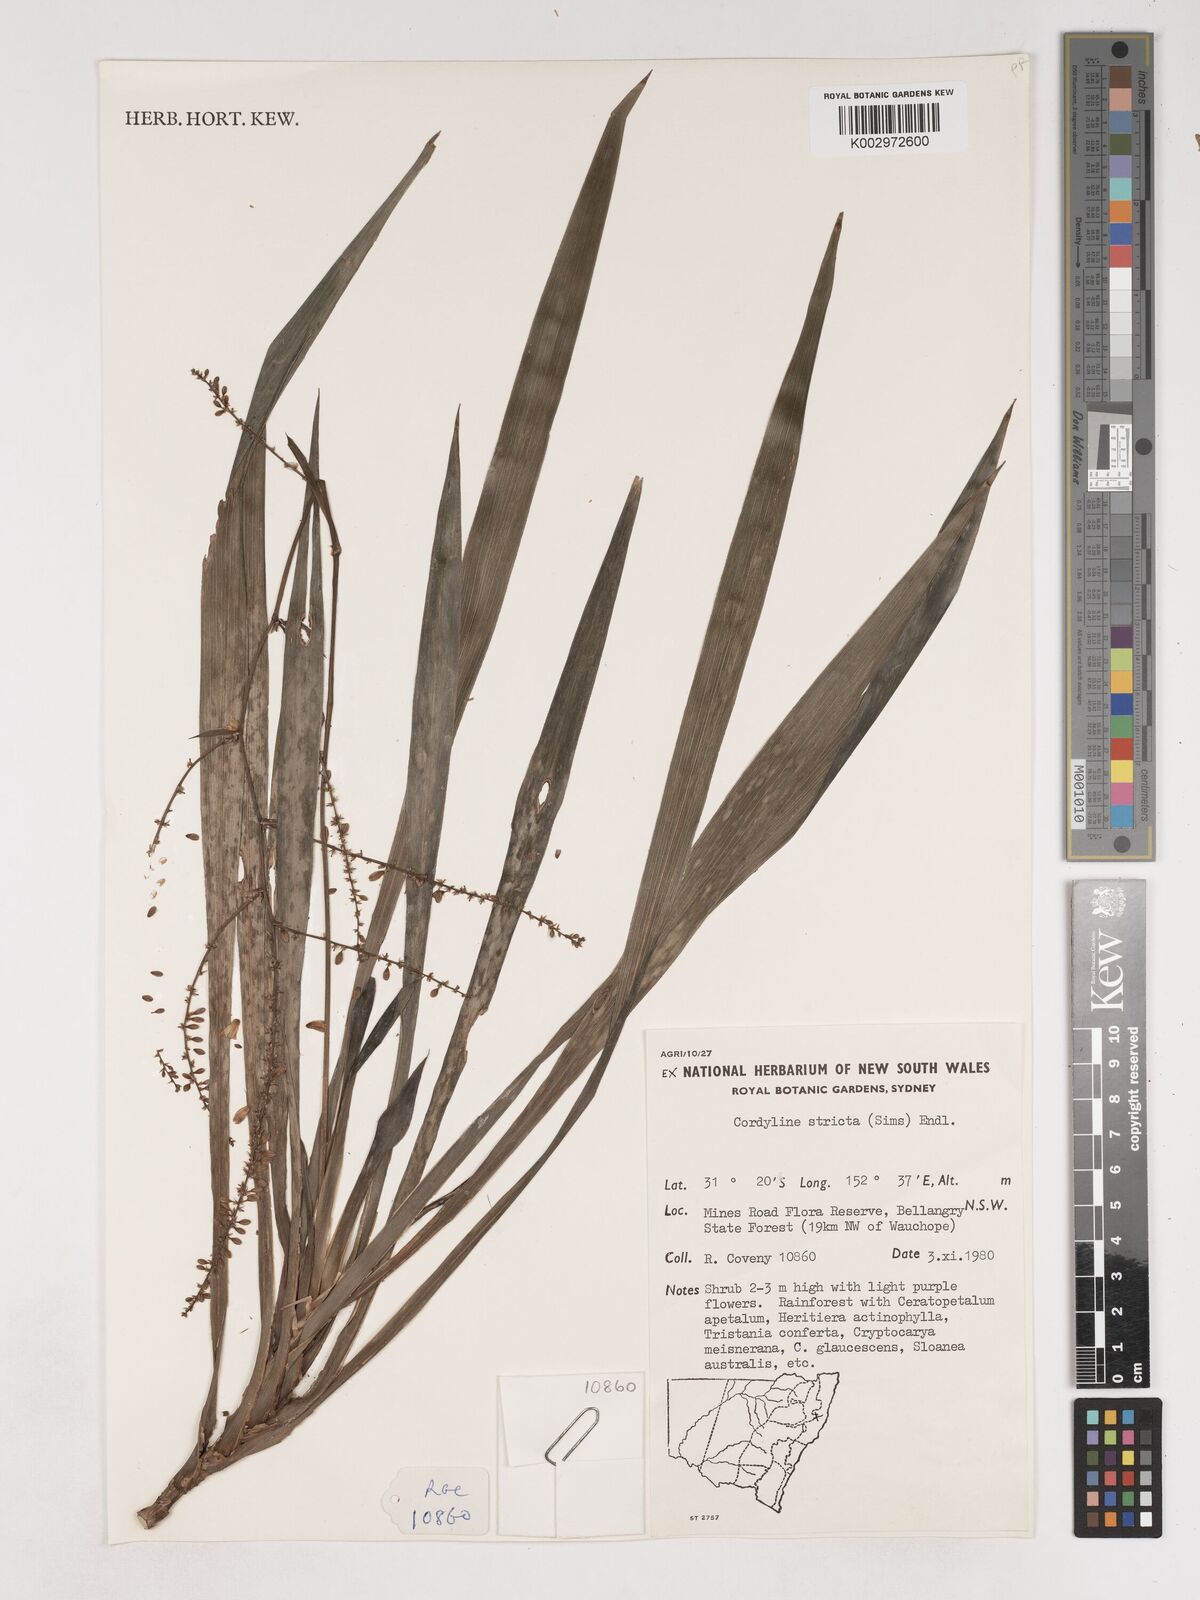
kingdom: Plantae
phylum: Tracheophyta
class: Liliopsida
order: Asparagales
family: Asparagaceae
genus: Cordyline
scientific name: Cordyline stricta
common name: Narrow-leaf palm-lily
